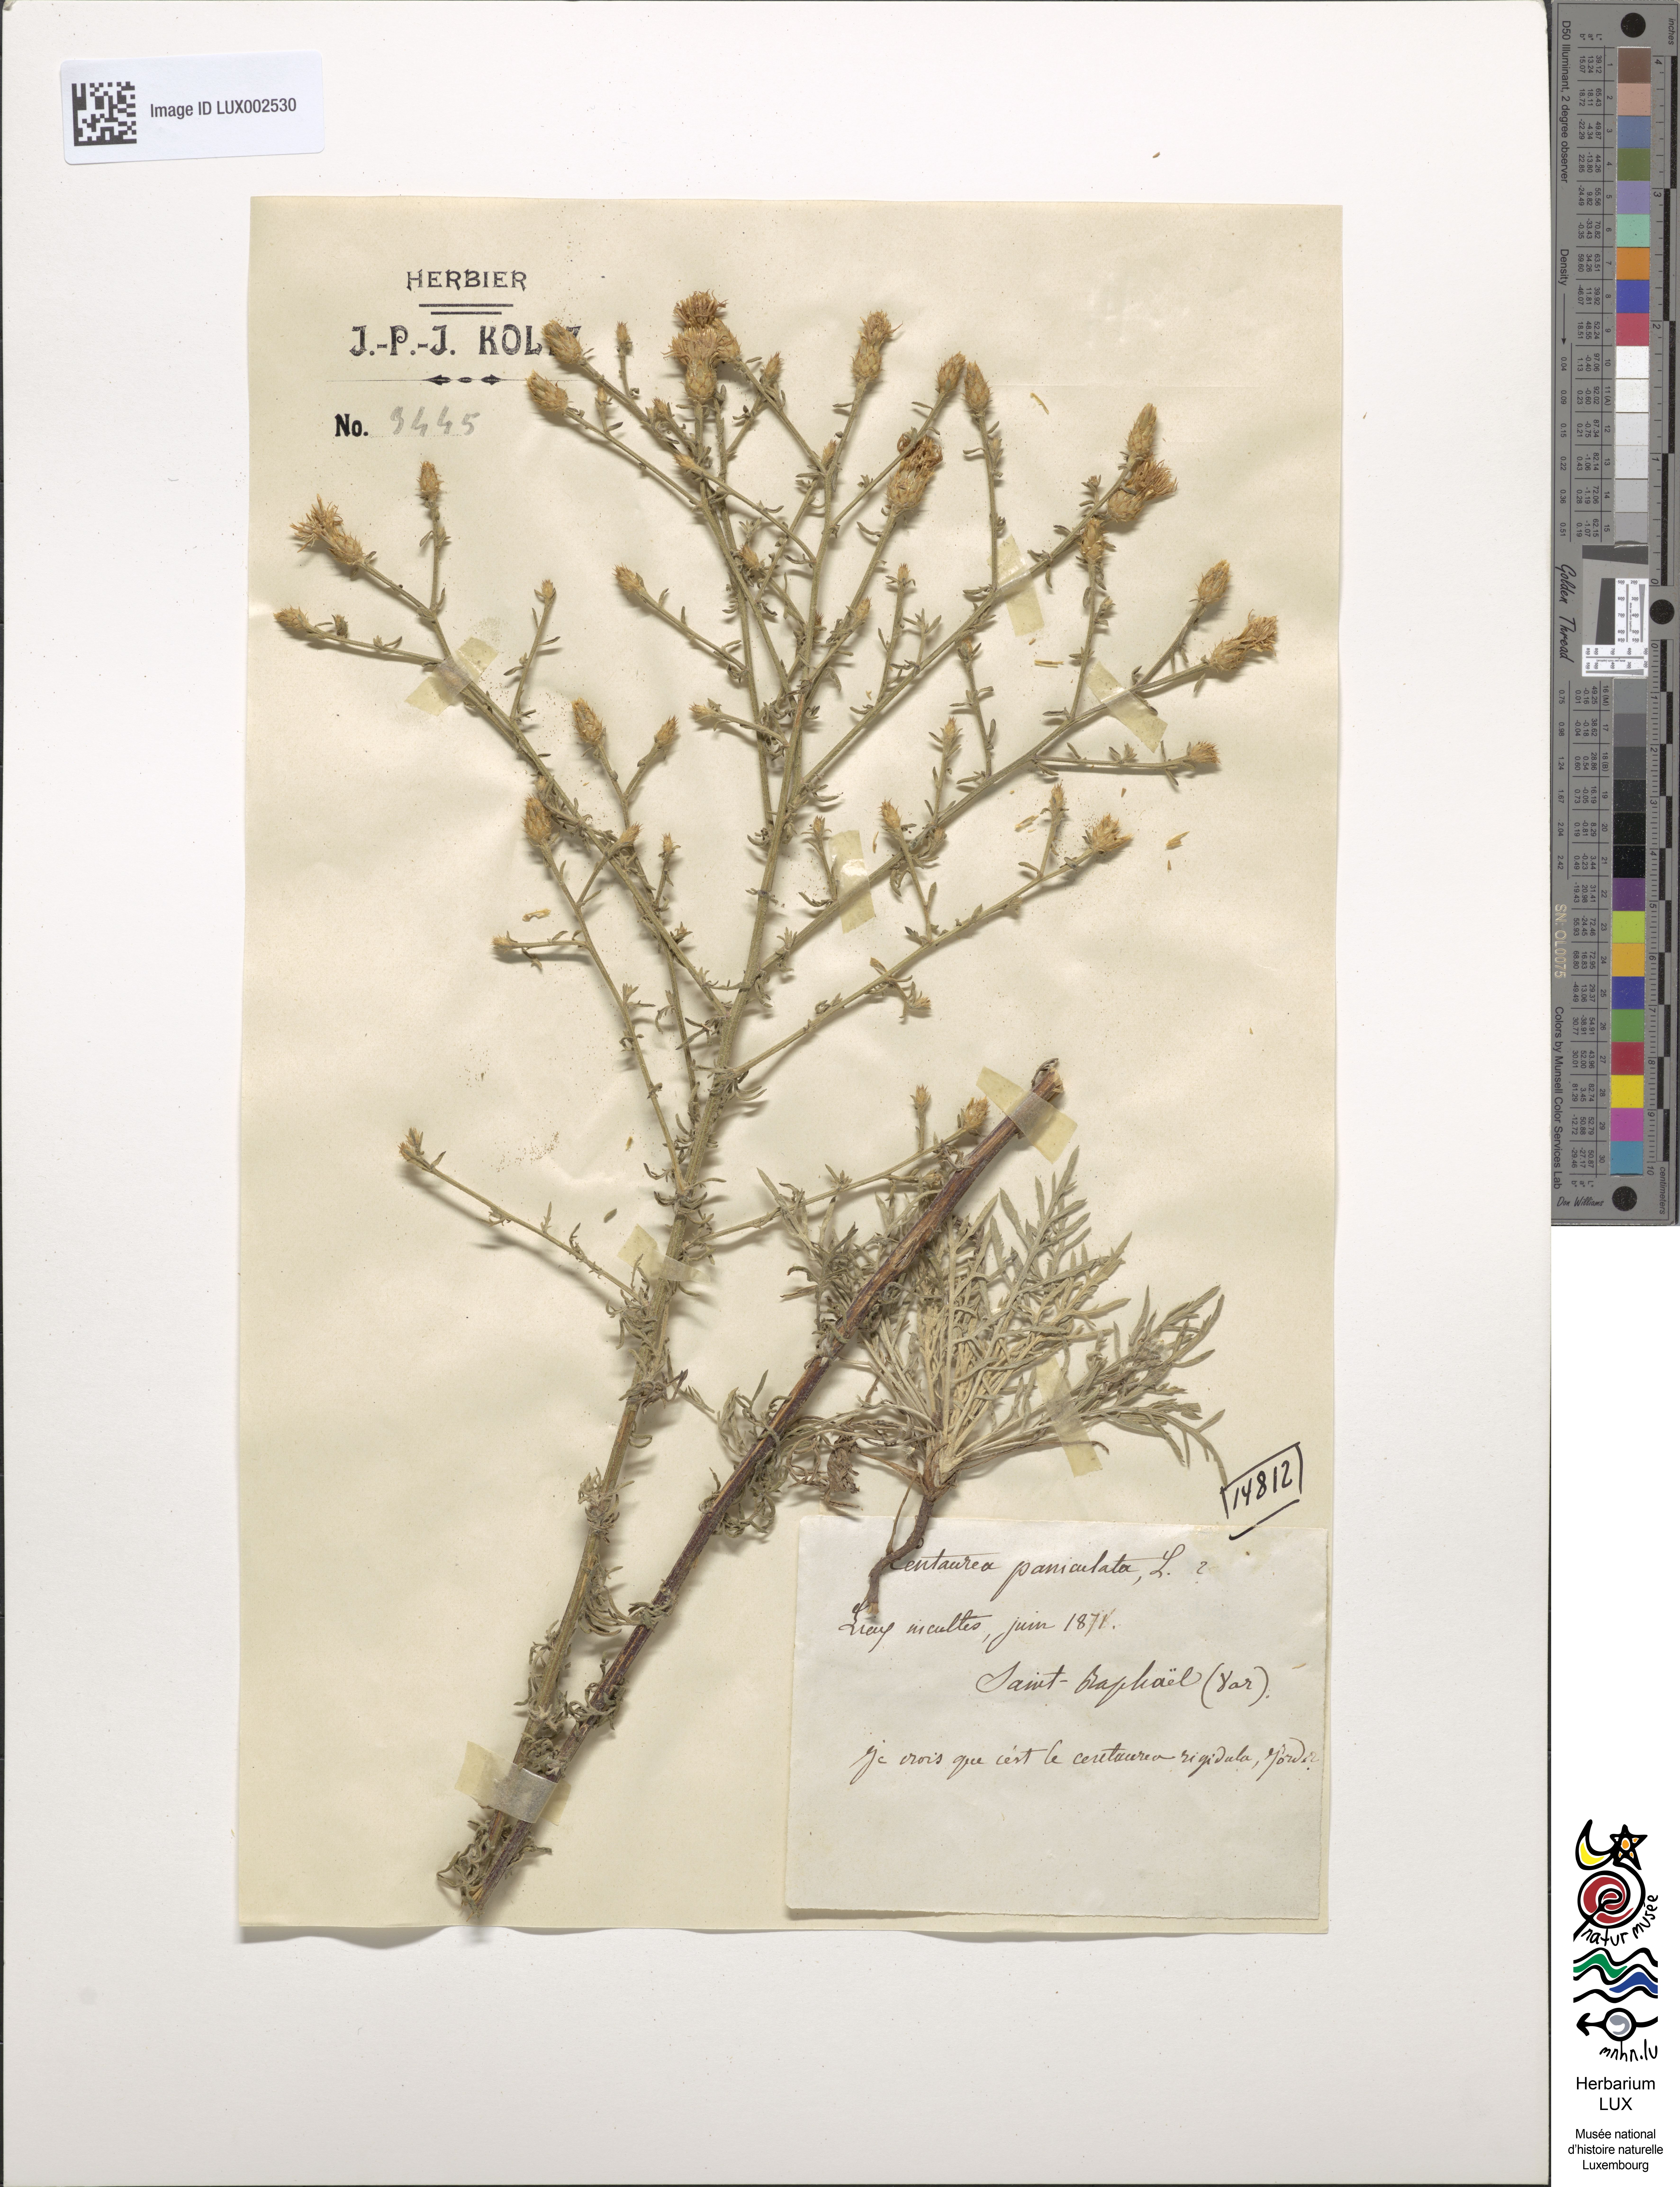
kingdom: Plantae
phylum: Tracheophyta
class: Magnoliopsida
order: Asterales
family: Asteraceae
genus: Centaurea
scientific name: Centaurea stoebe
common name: Spotted knapweed
